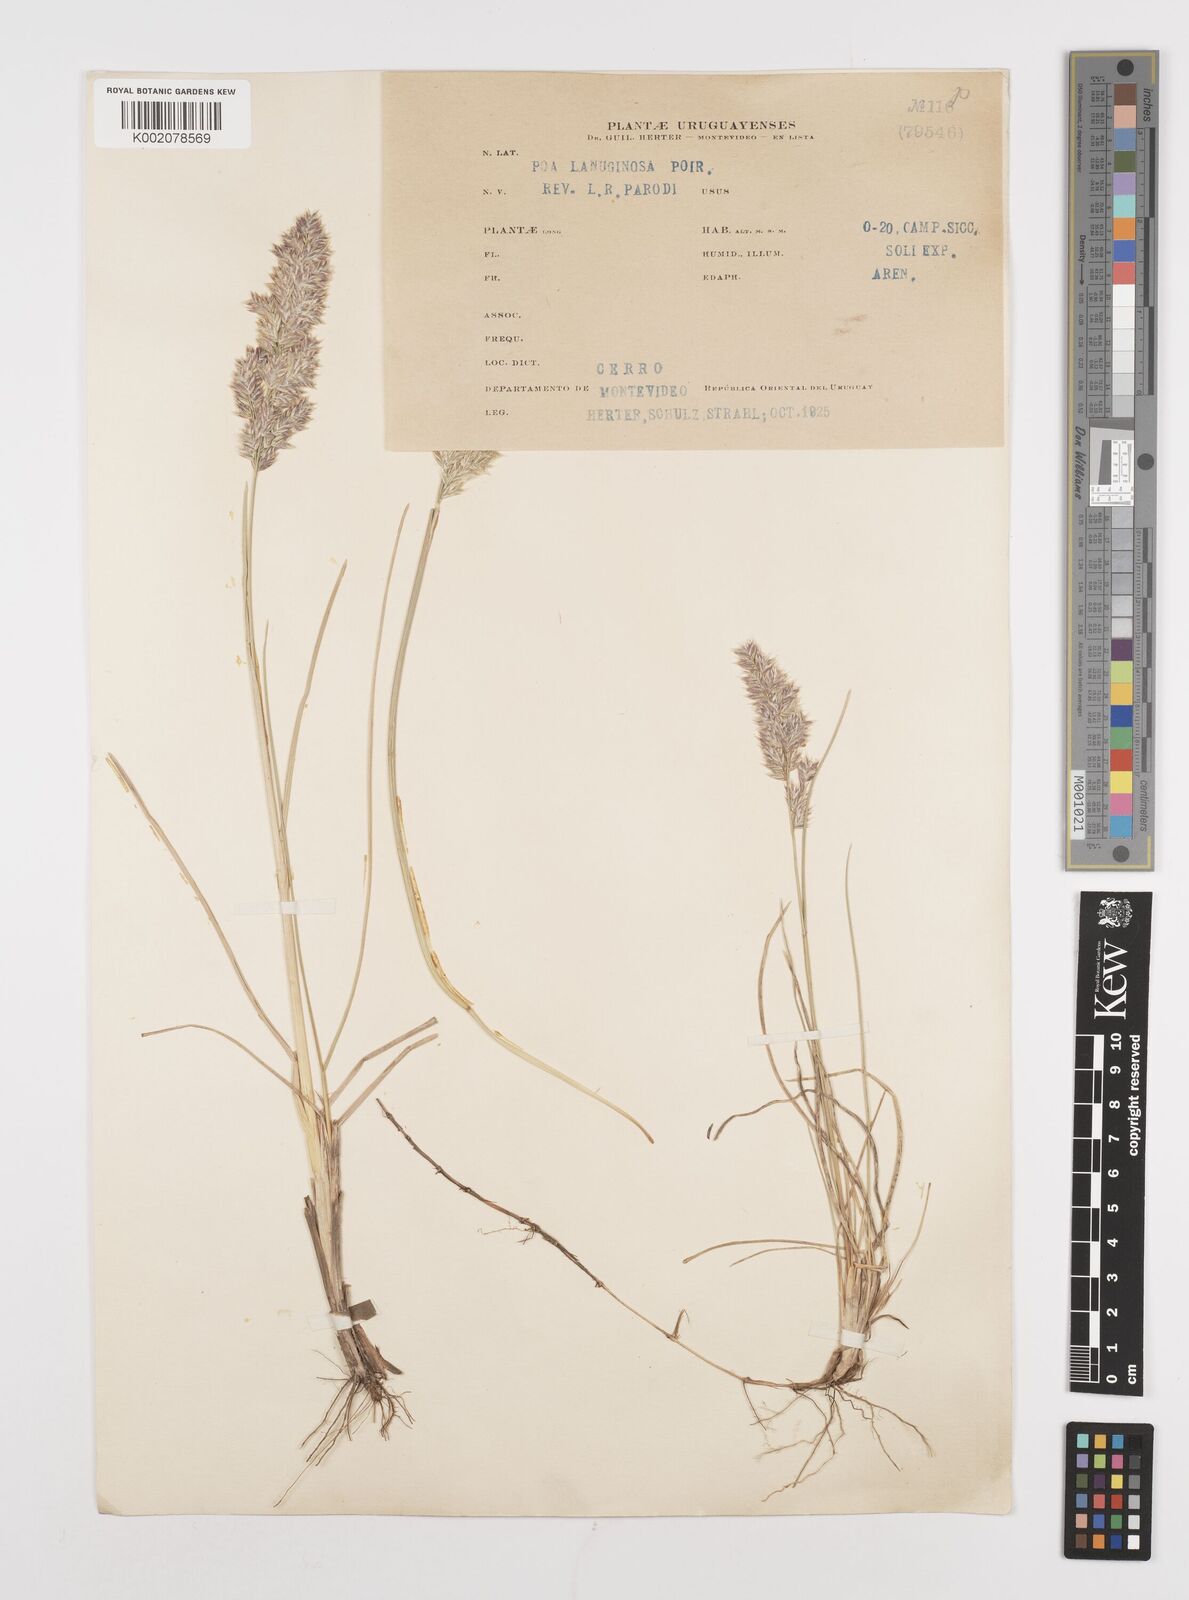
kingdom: Plantae
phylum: Tracheophyta
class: Liliopsida
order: Poales
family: Poaceae
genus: Poa
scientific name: Poa lanuginosa
